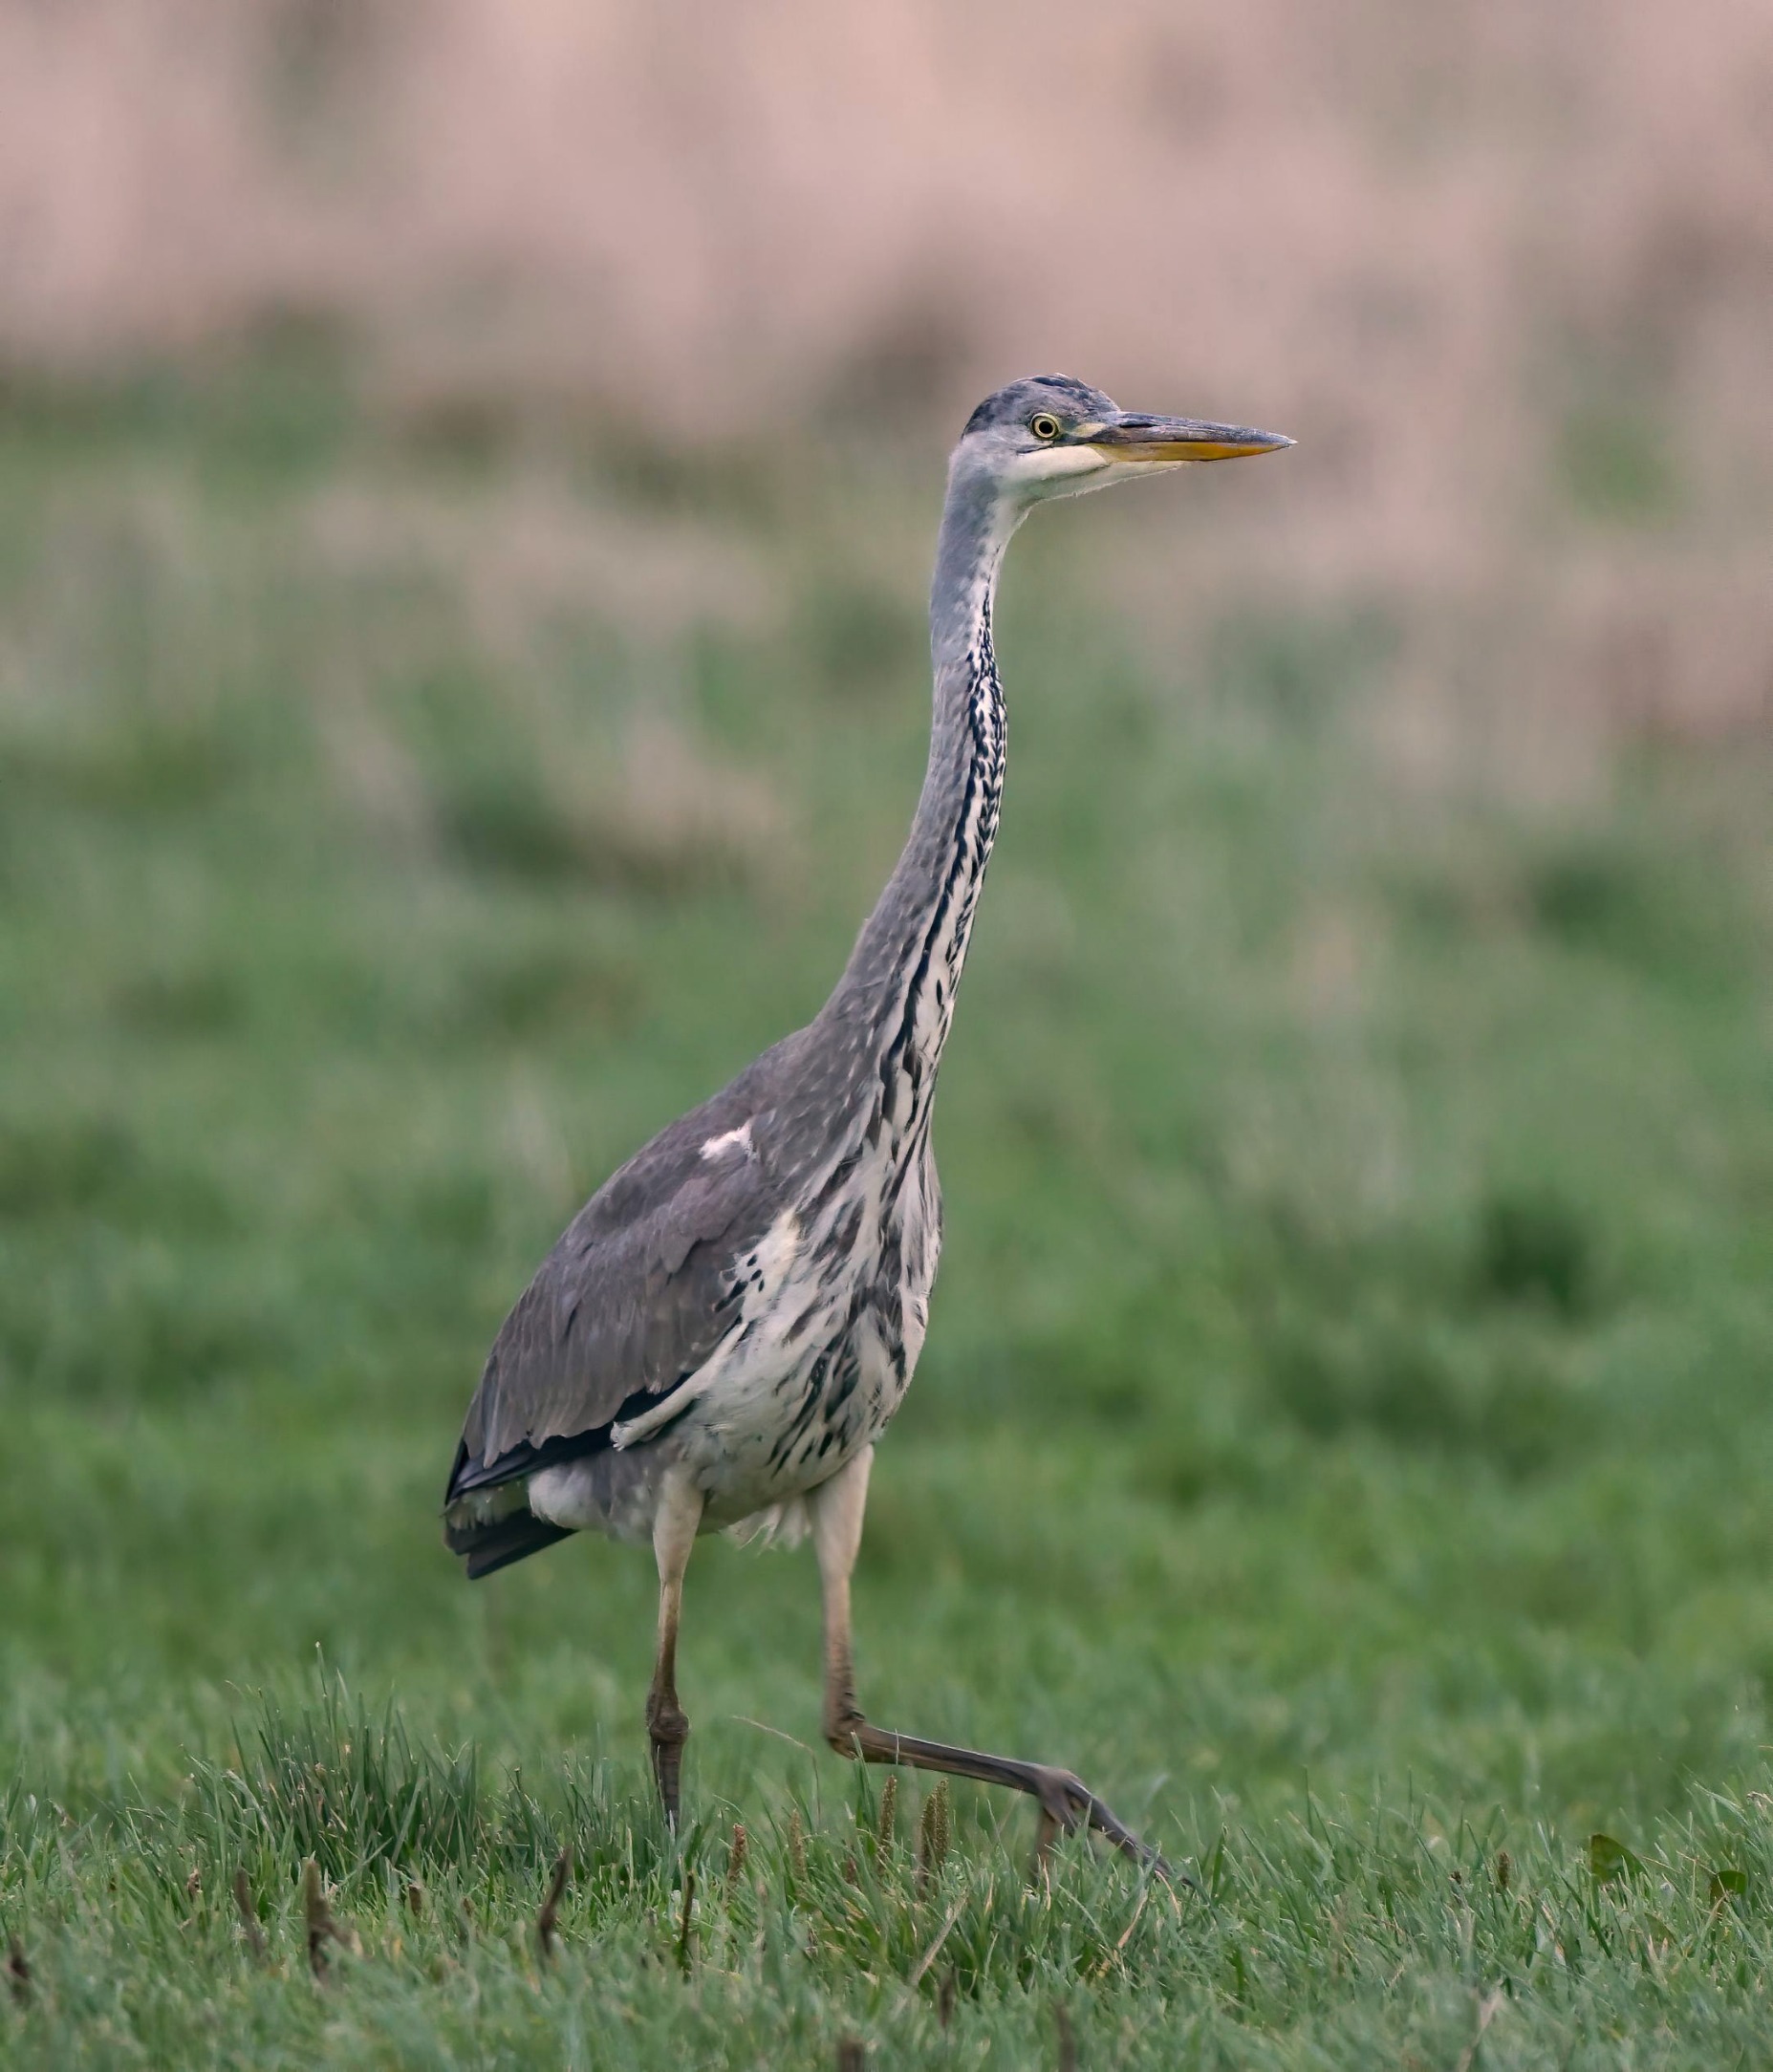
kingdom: Animalia
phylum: Chordata
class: Aves
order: Pelecaniformes
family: Ardeidae
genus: Ardea
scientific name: Ardea cinerea
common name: Fiskehejre
